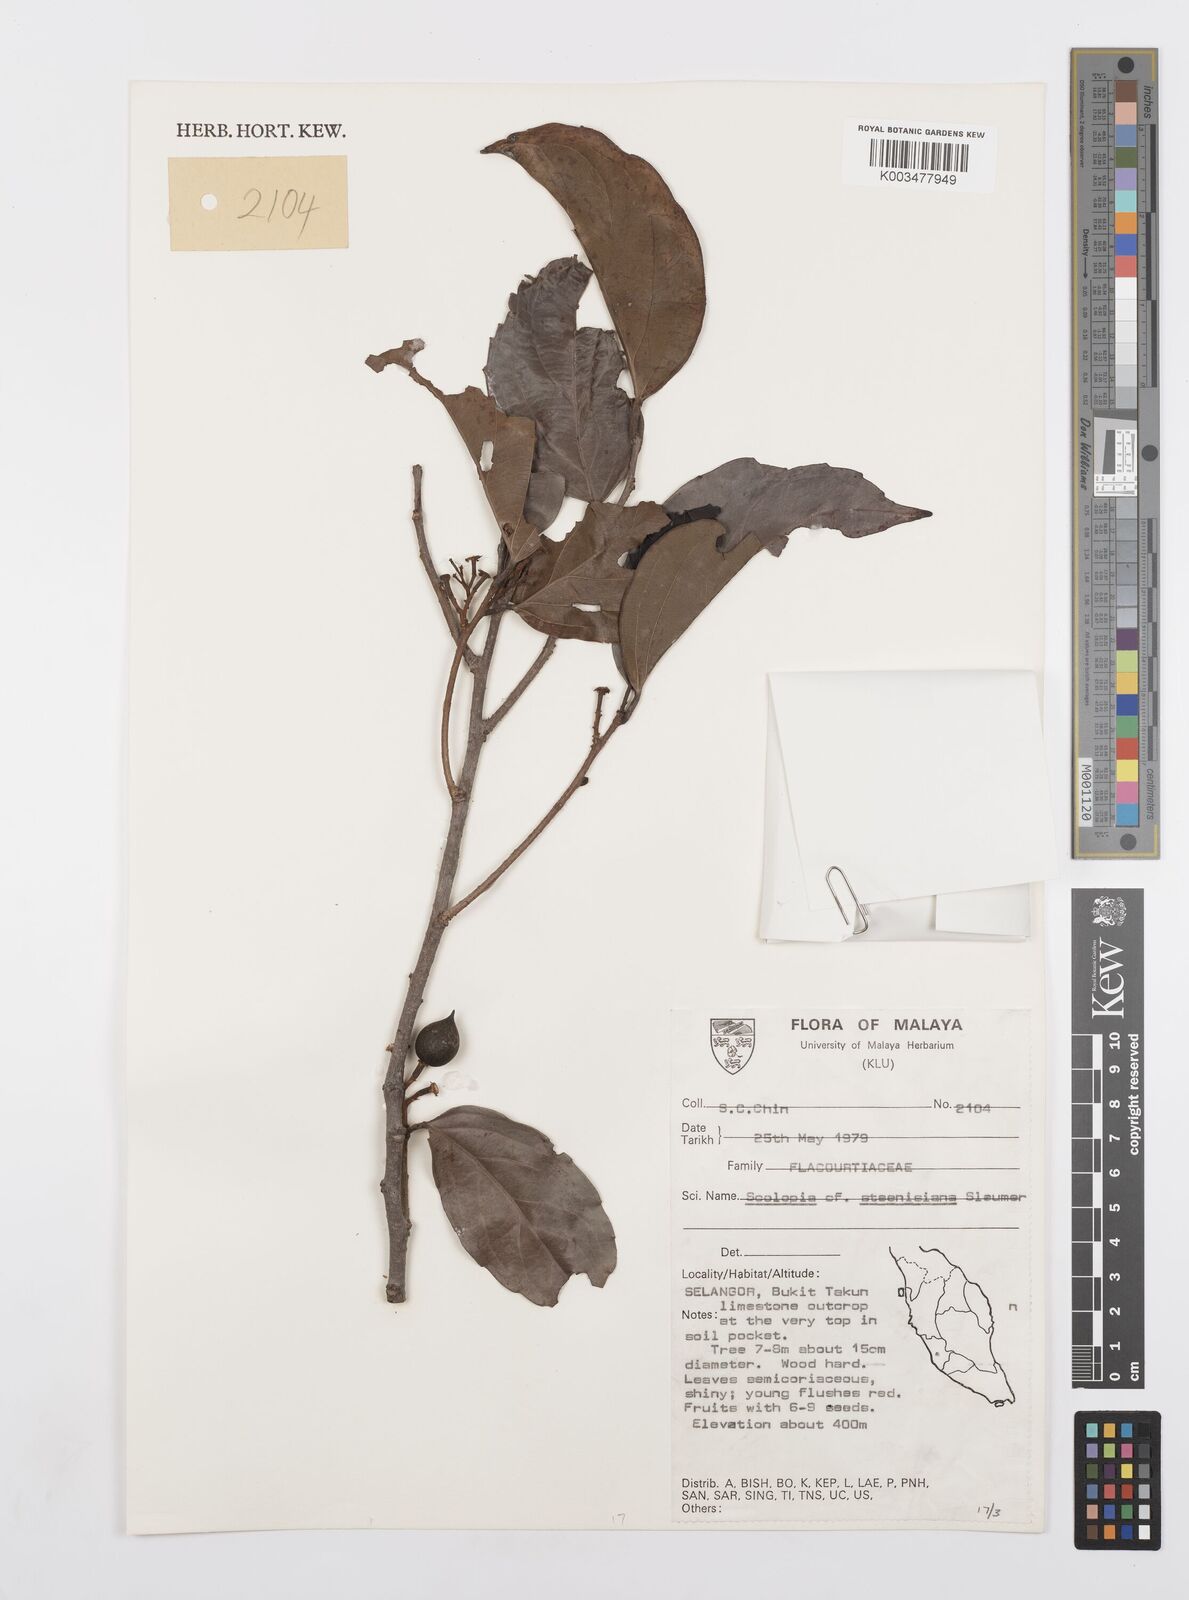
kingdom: Plantae
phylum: Tracheophyta
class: Magnoliopsida
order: Malpighiales
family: Salicaceae
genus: Scolopia
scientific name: Scolopia steenisiana
